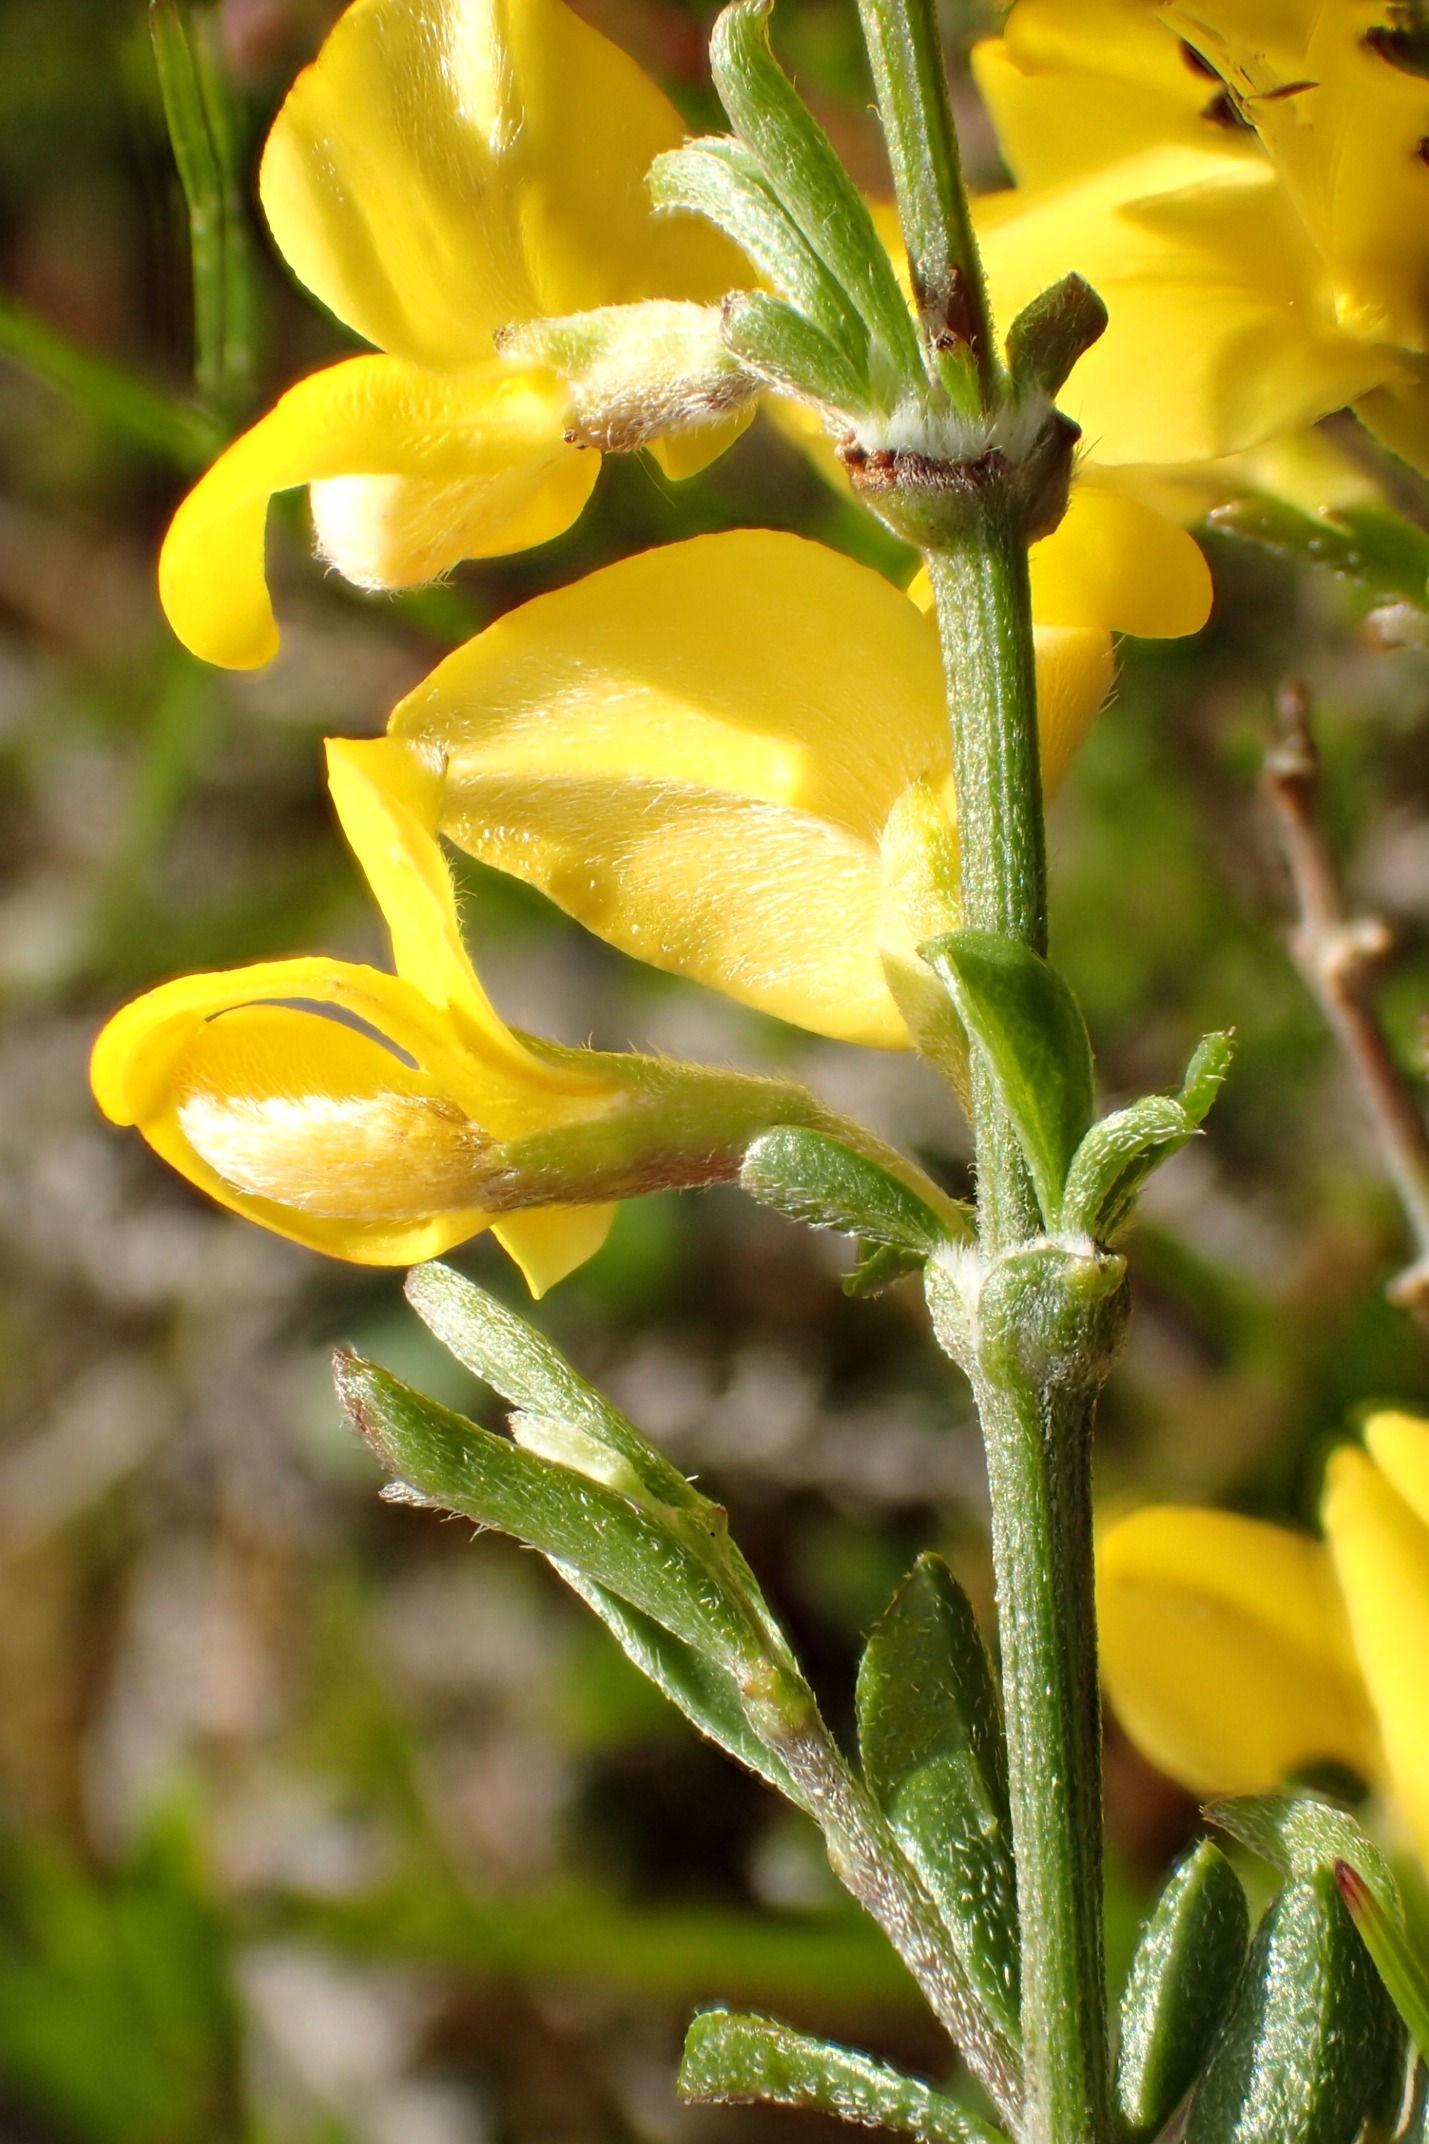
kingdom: Plantae
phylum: Tracheophyta
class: Magnoliopsida
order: Fabales
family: Fabaceae
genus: Genista
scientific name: Genista pilosa
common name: Håret visse
